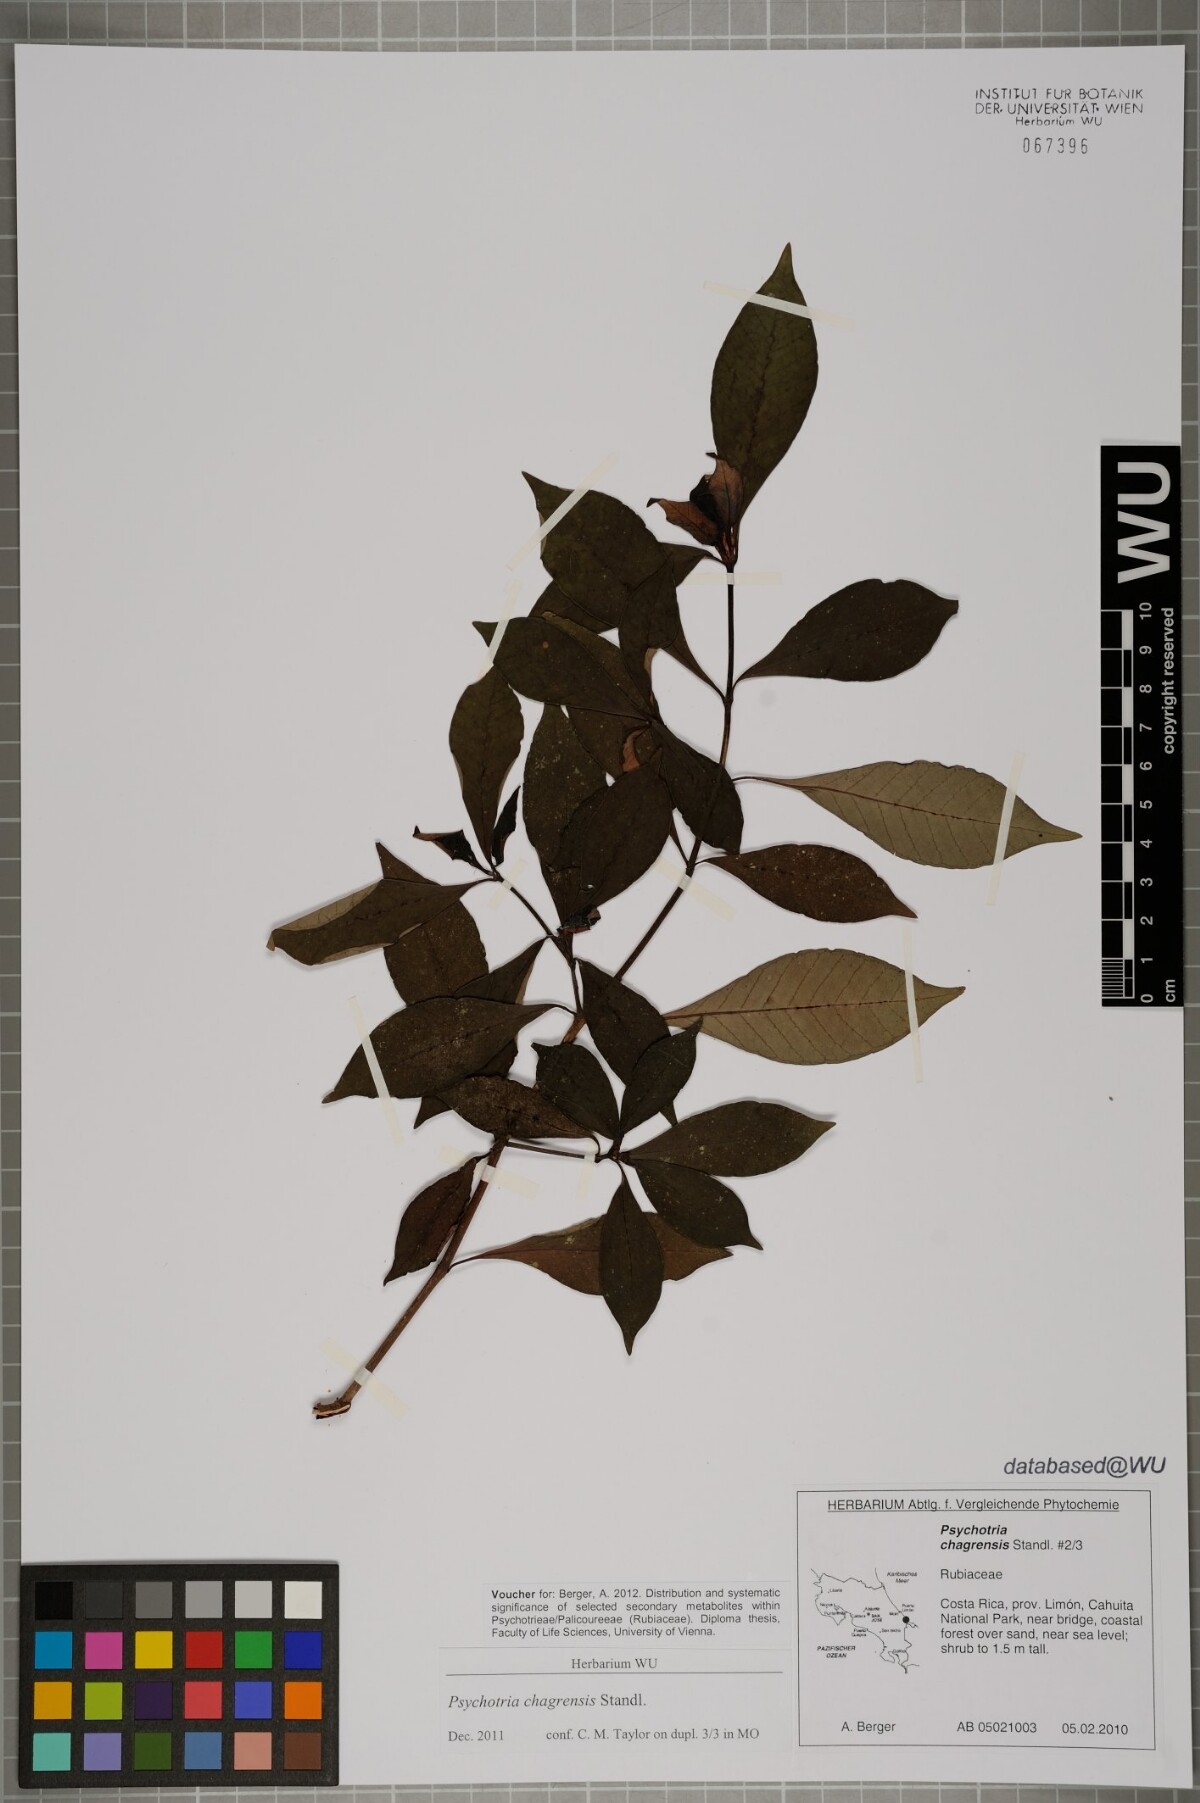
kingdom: Plantae
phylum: Tracheophyta
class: Magnoliopsida
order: Gentianales
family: Rubiaceae
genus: Psychotria
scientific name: Psychotria chagrensis
